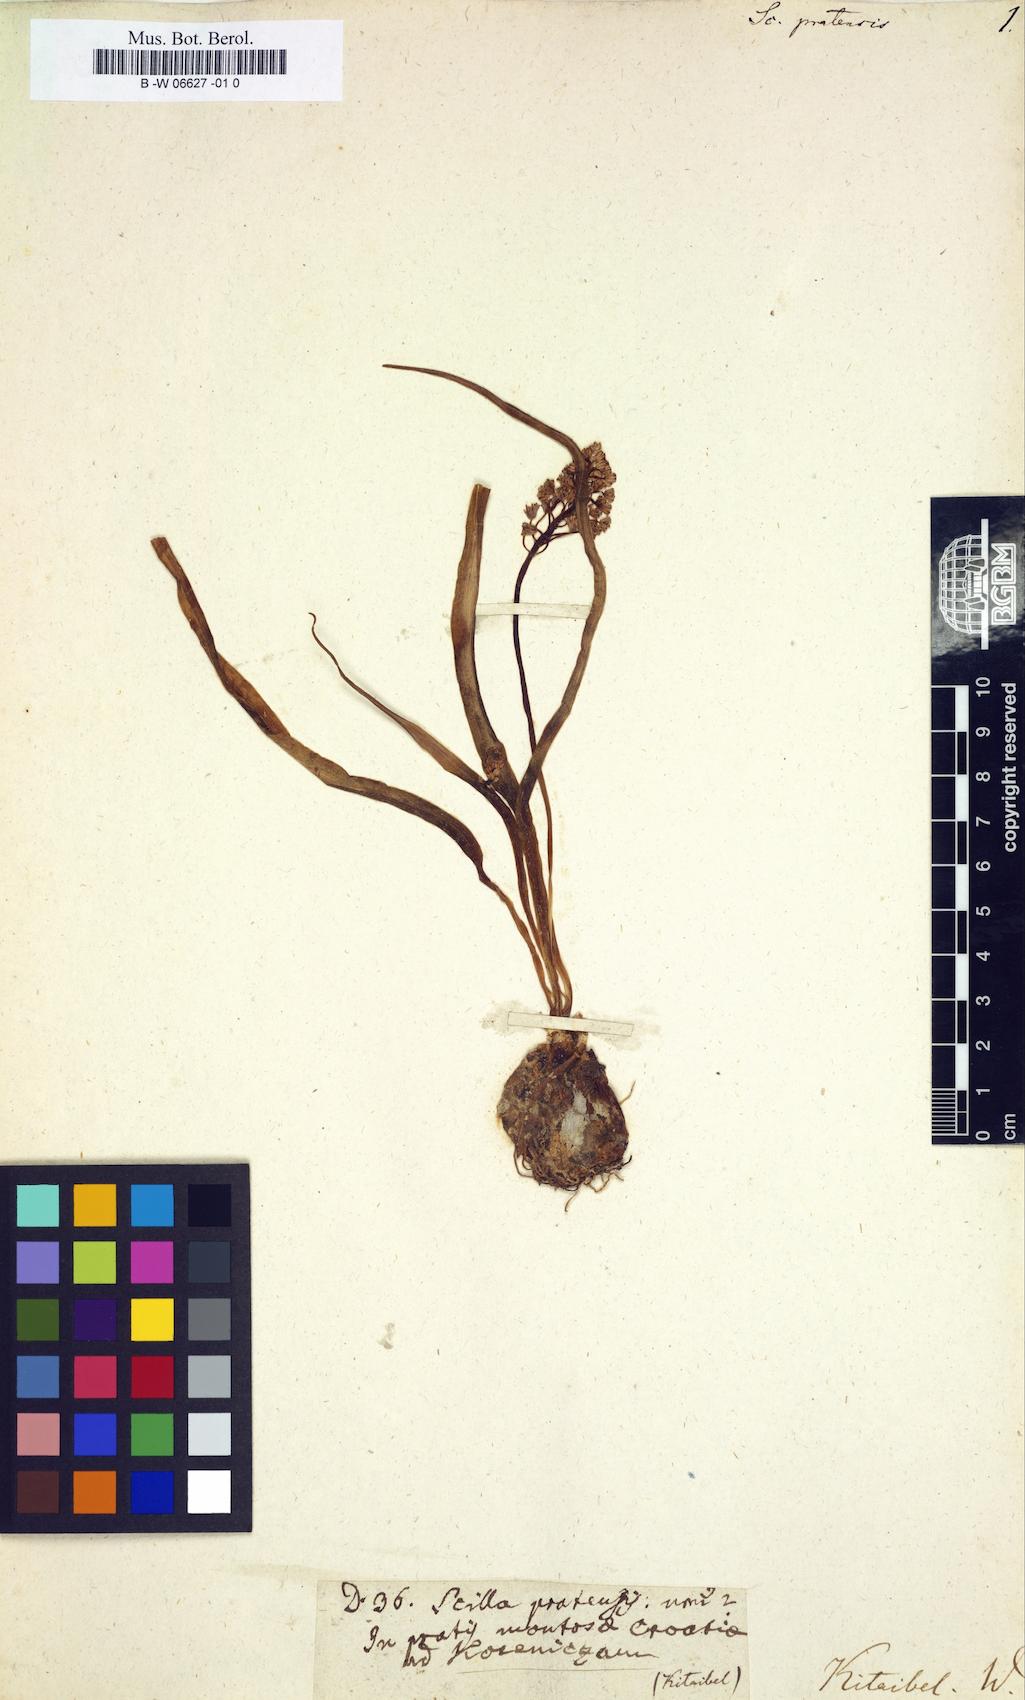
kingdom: Plantae
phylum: Tracheophyta
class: Liliopsida
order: Asparagales
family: Asparagaceae
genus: Scilla
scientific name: Scilla
